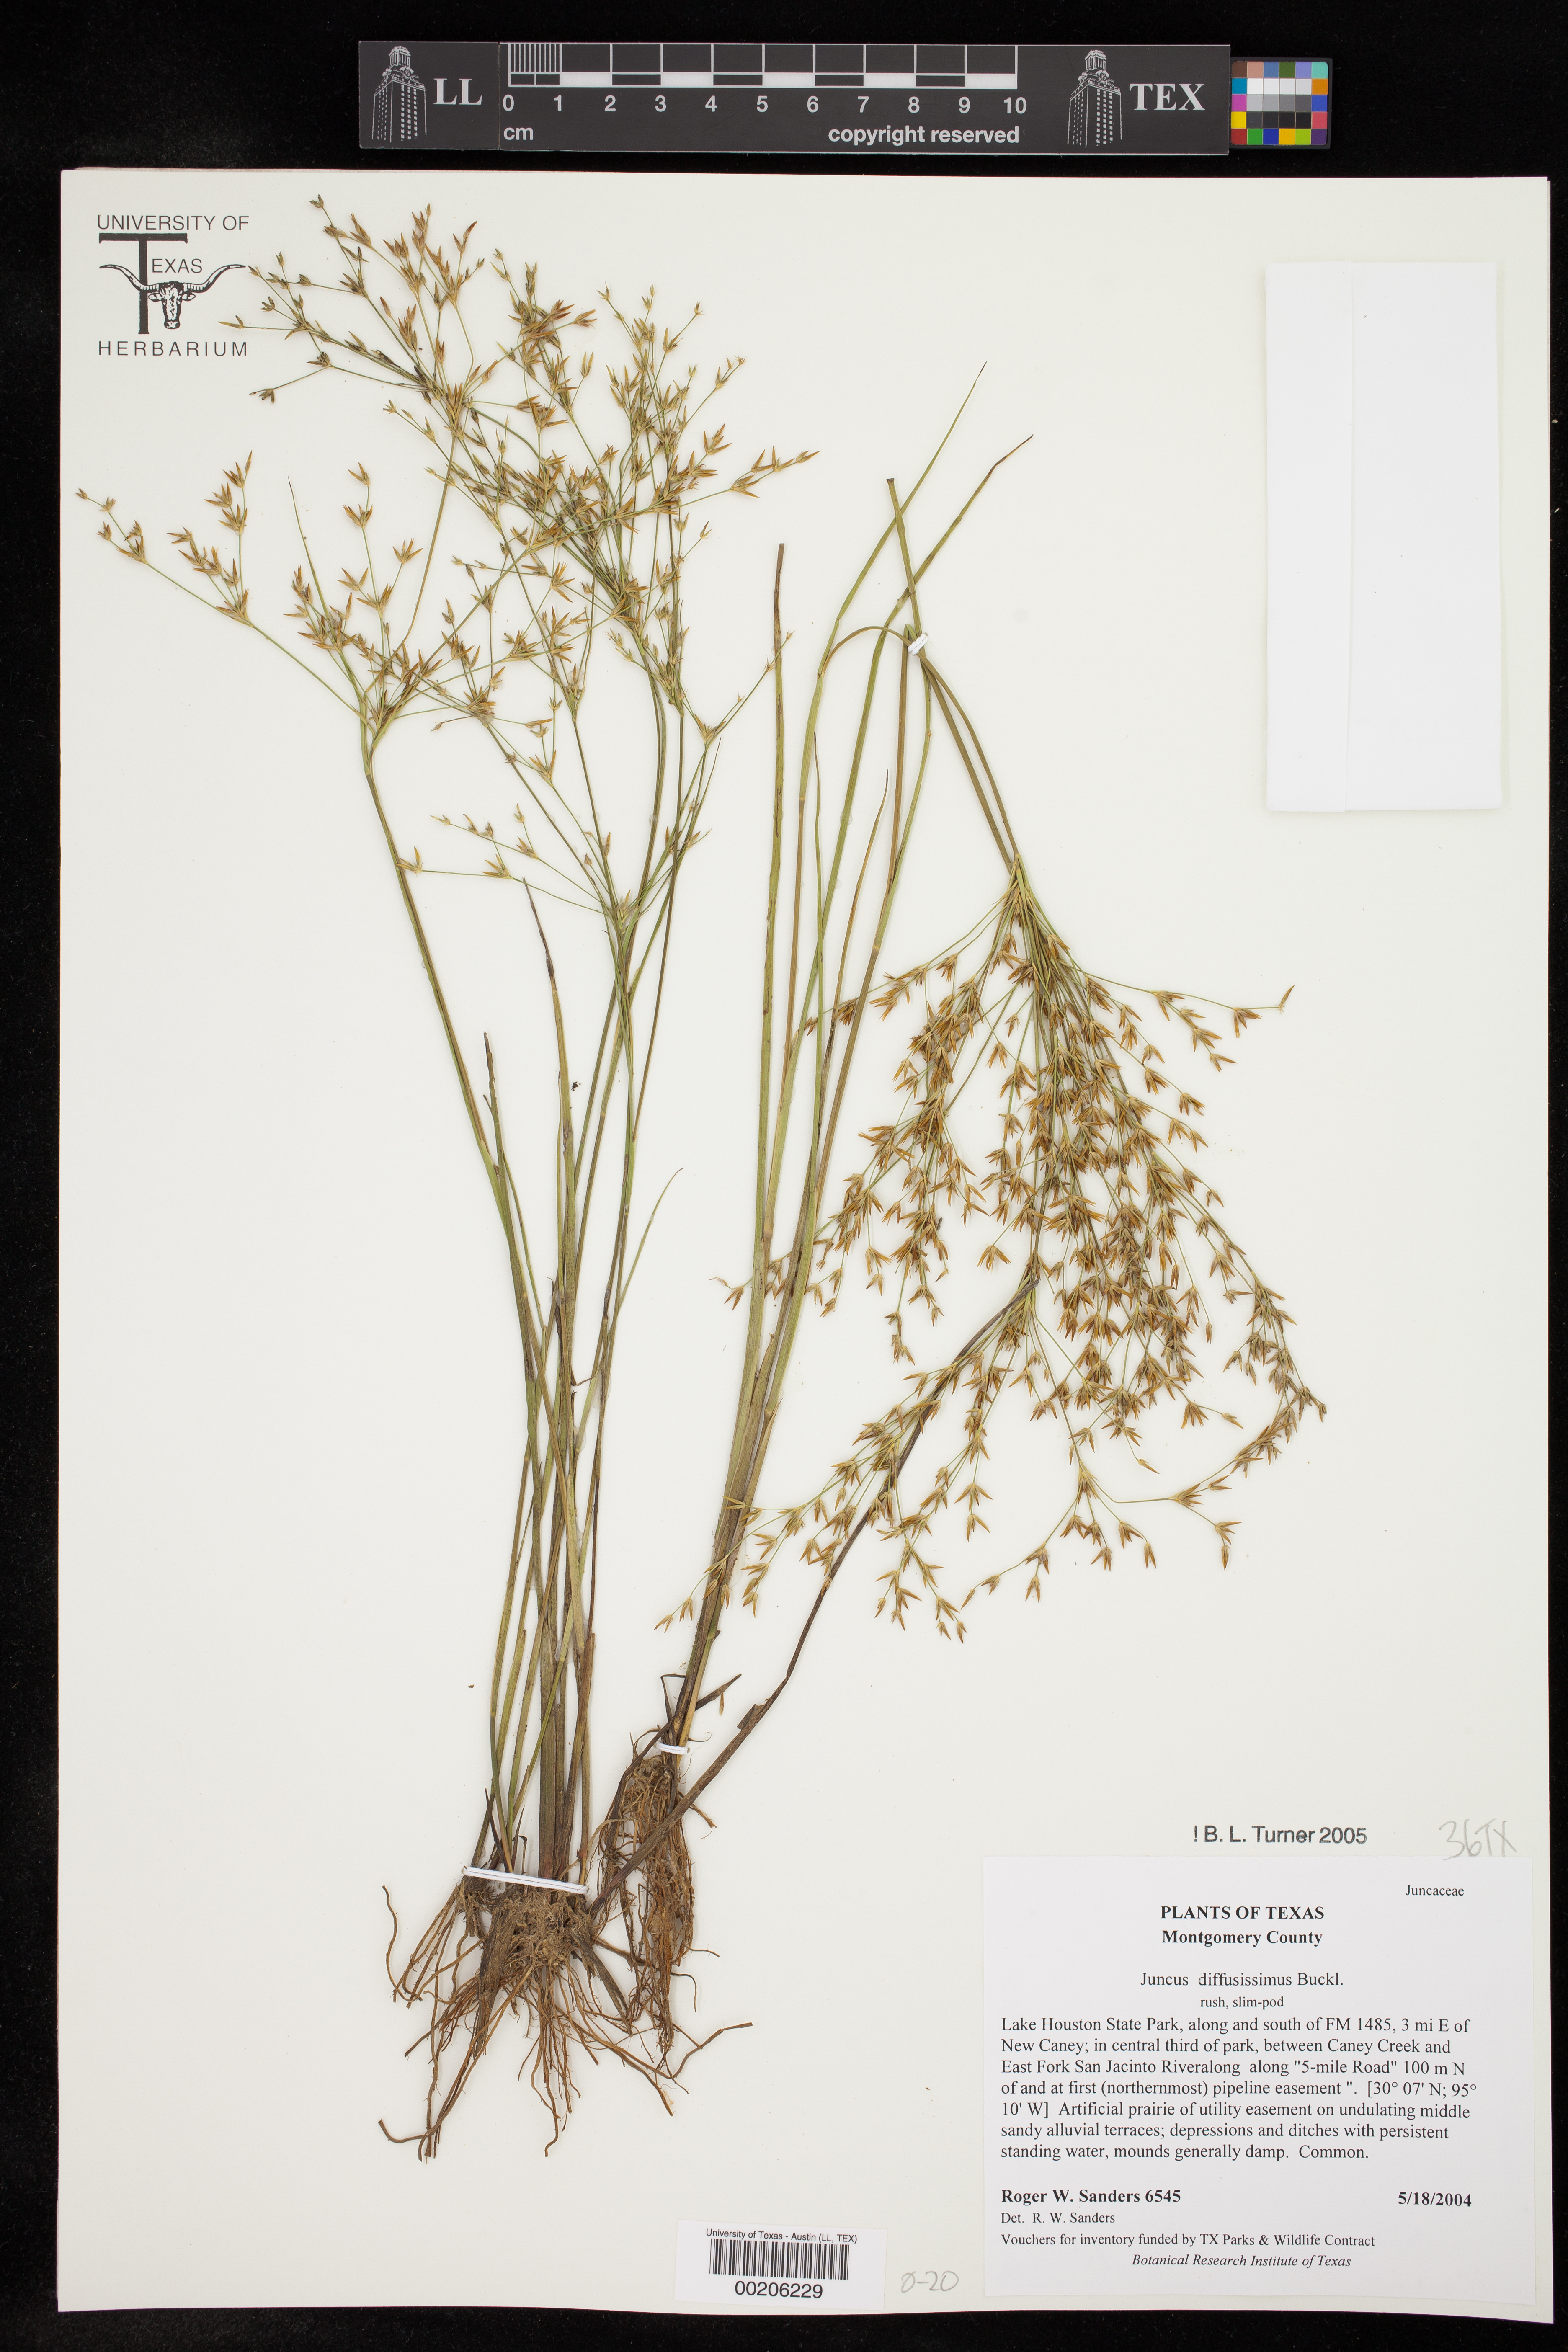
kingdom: Plantae
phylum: Tracheophyta
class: Liliopsida
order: Poales
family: Juncaceae
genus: Juncus
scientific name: Juncus diffusissimus
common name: Slimpod rush
